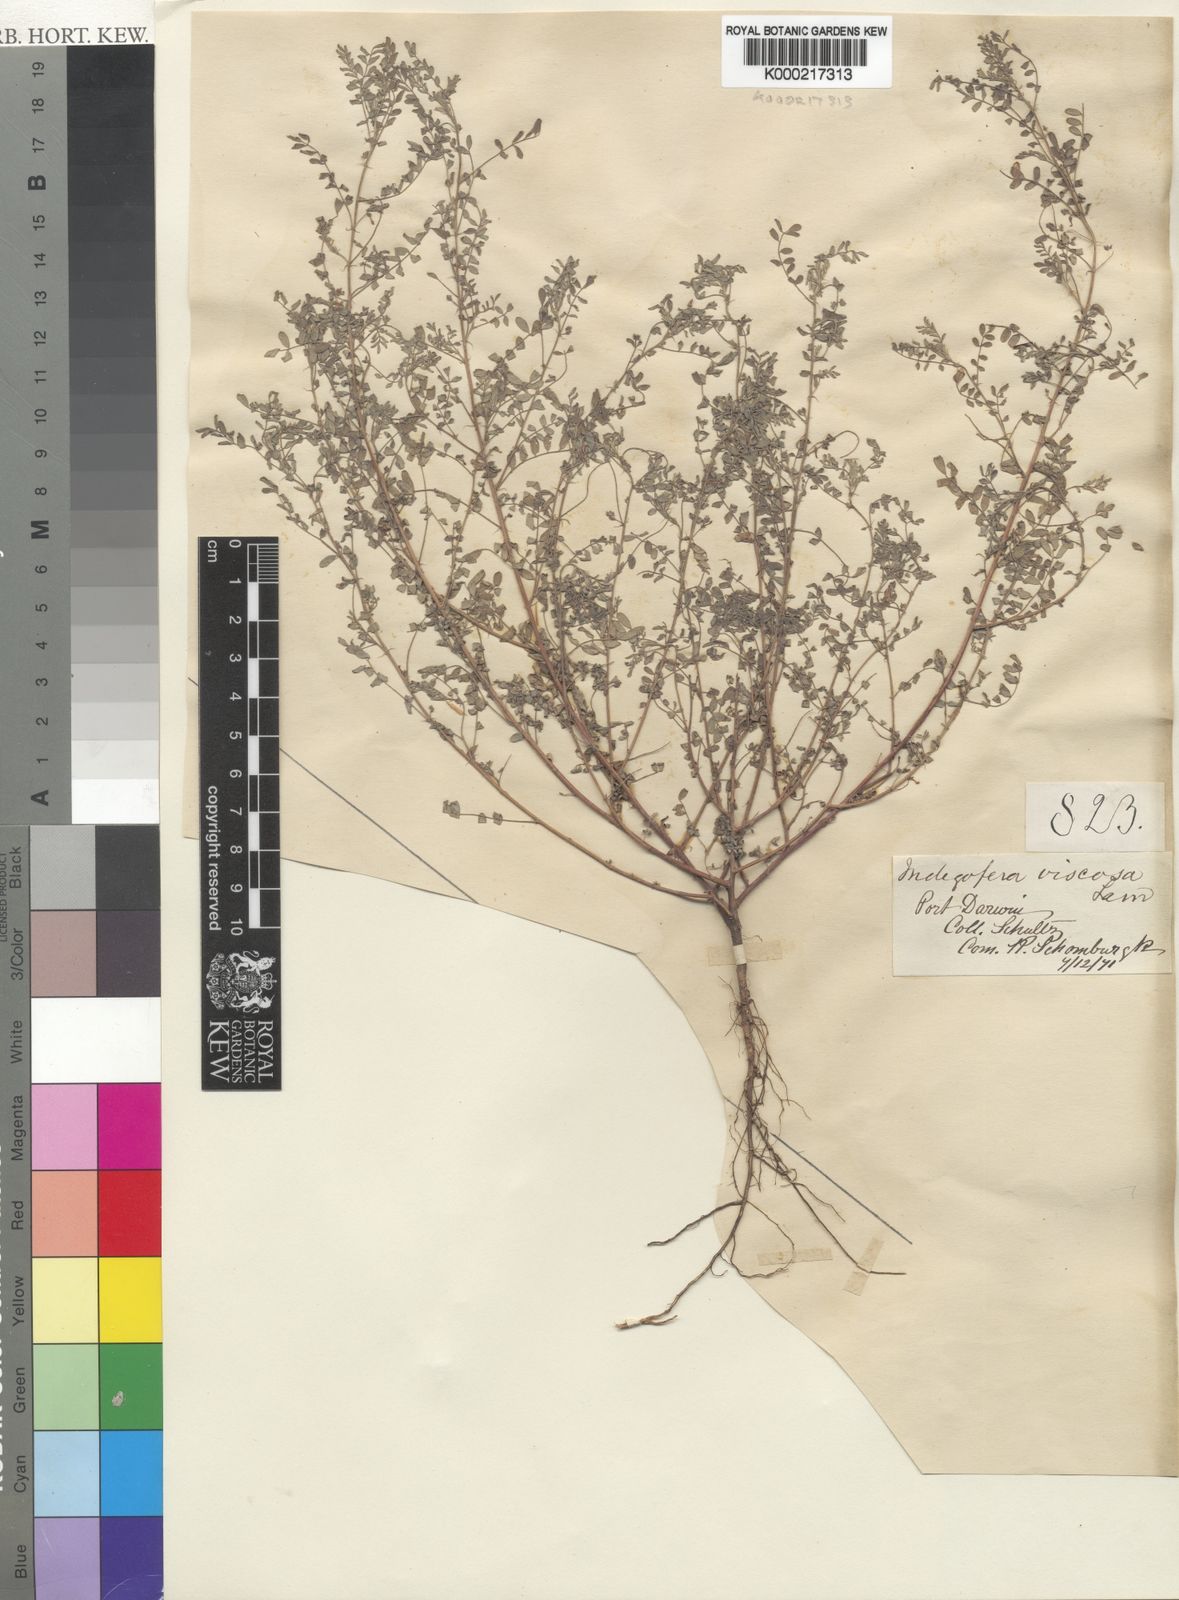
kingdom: Plantae
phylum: Tracheophyta
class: Magnoliopsida
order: Fabales
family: Fabaceae
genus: Indigofera
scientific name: Indigofera colutea
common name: Rusty indigo
